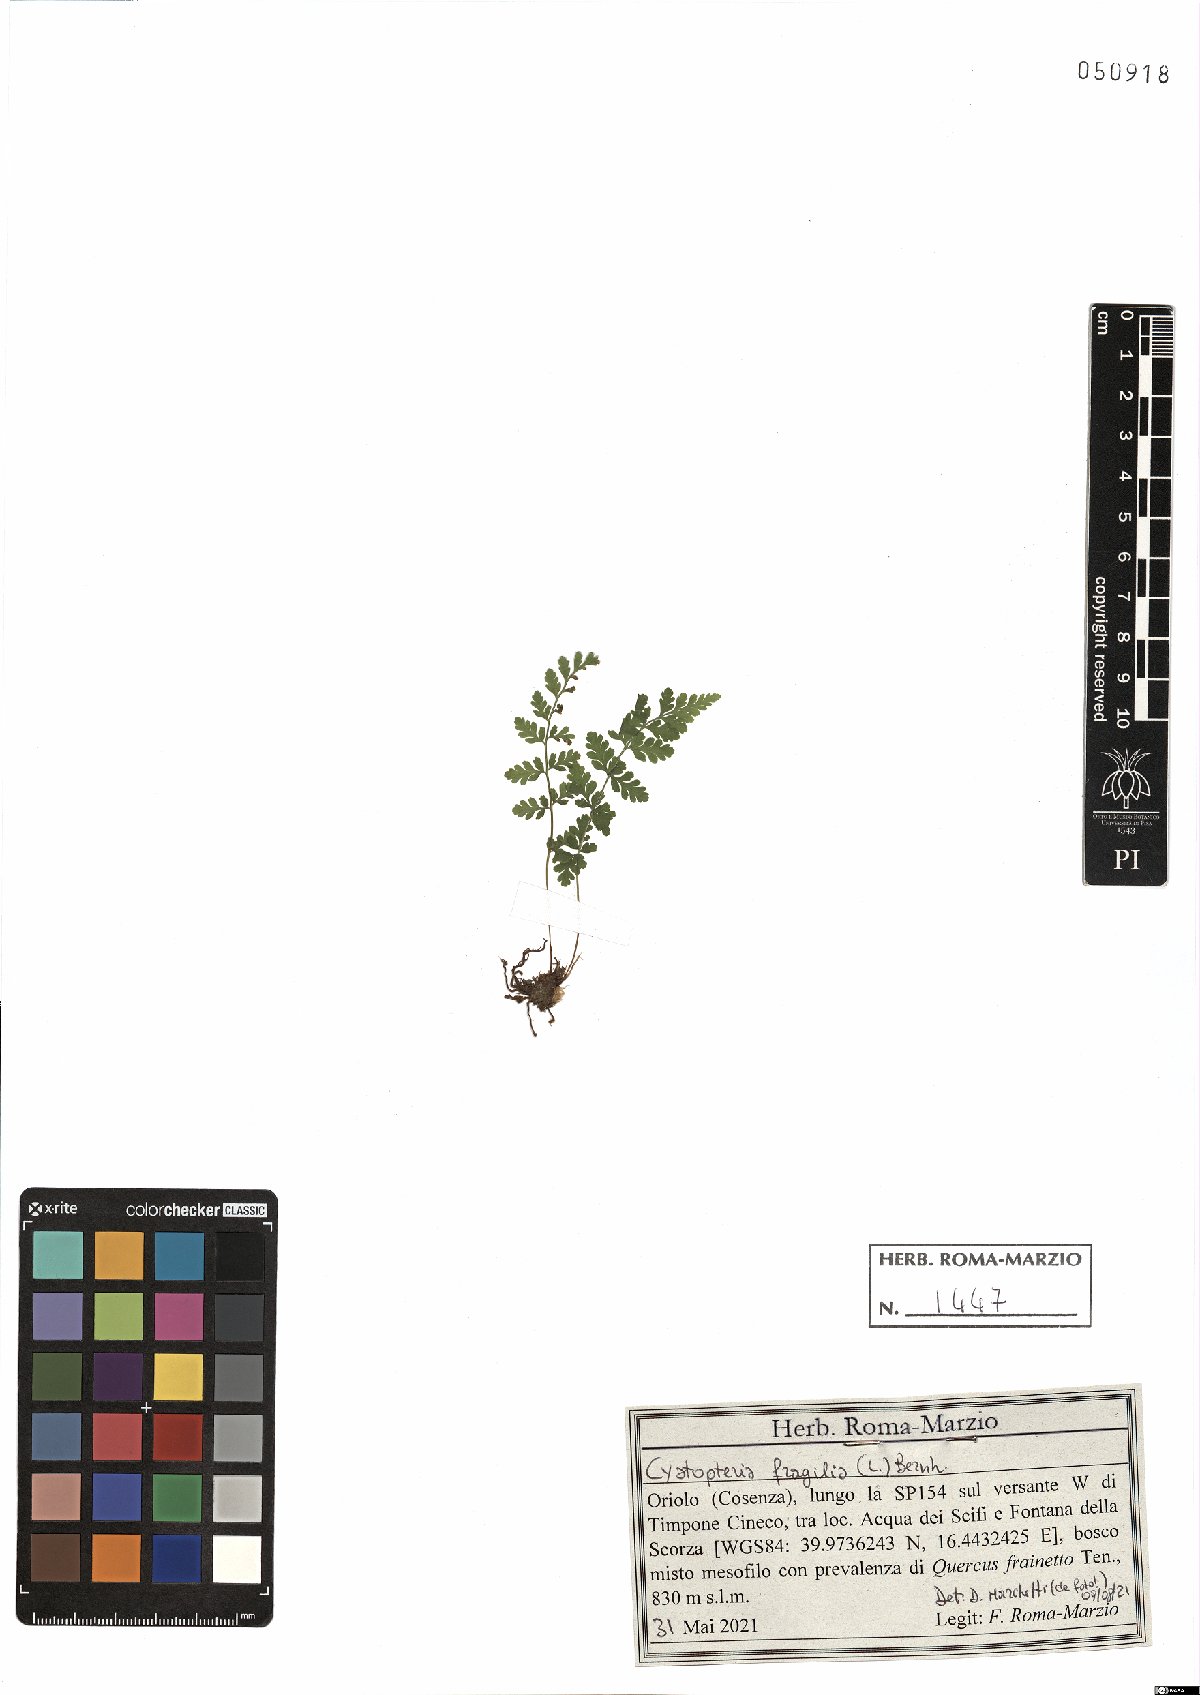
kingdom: Plantae
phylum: Tracheophyta
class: Polypodiopsida
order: Polypodiales
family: Cystopteridaceae
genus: Cystopteris
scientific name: Cystopteris fragilis
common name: Brittle bladder fern
